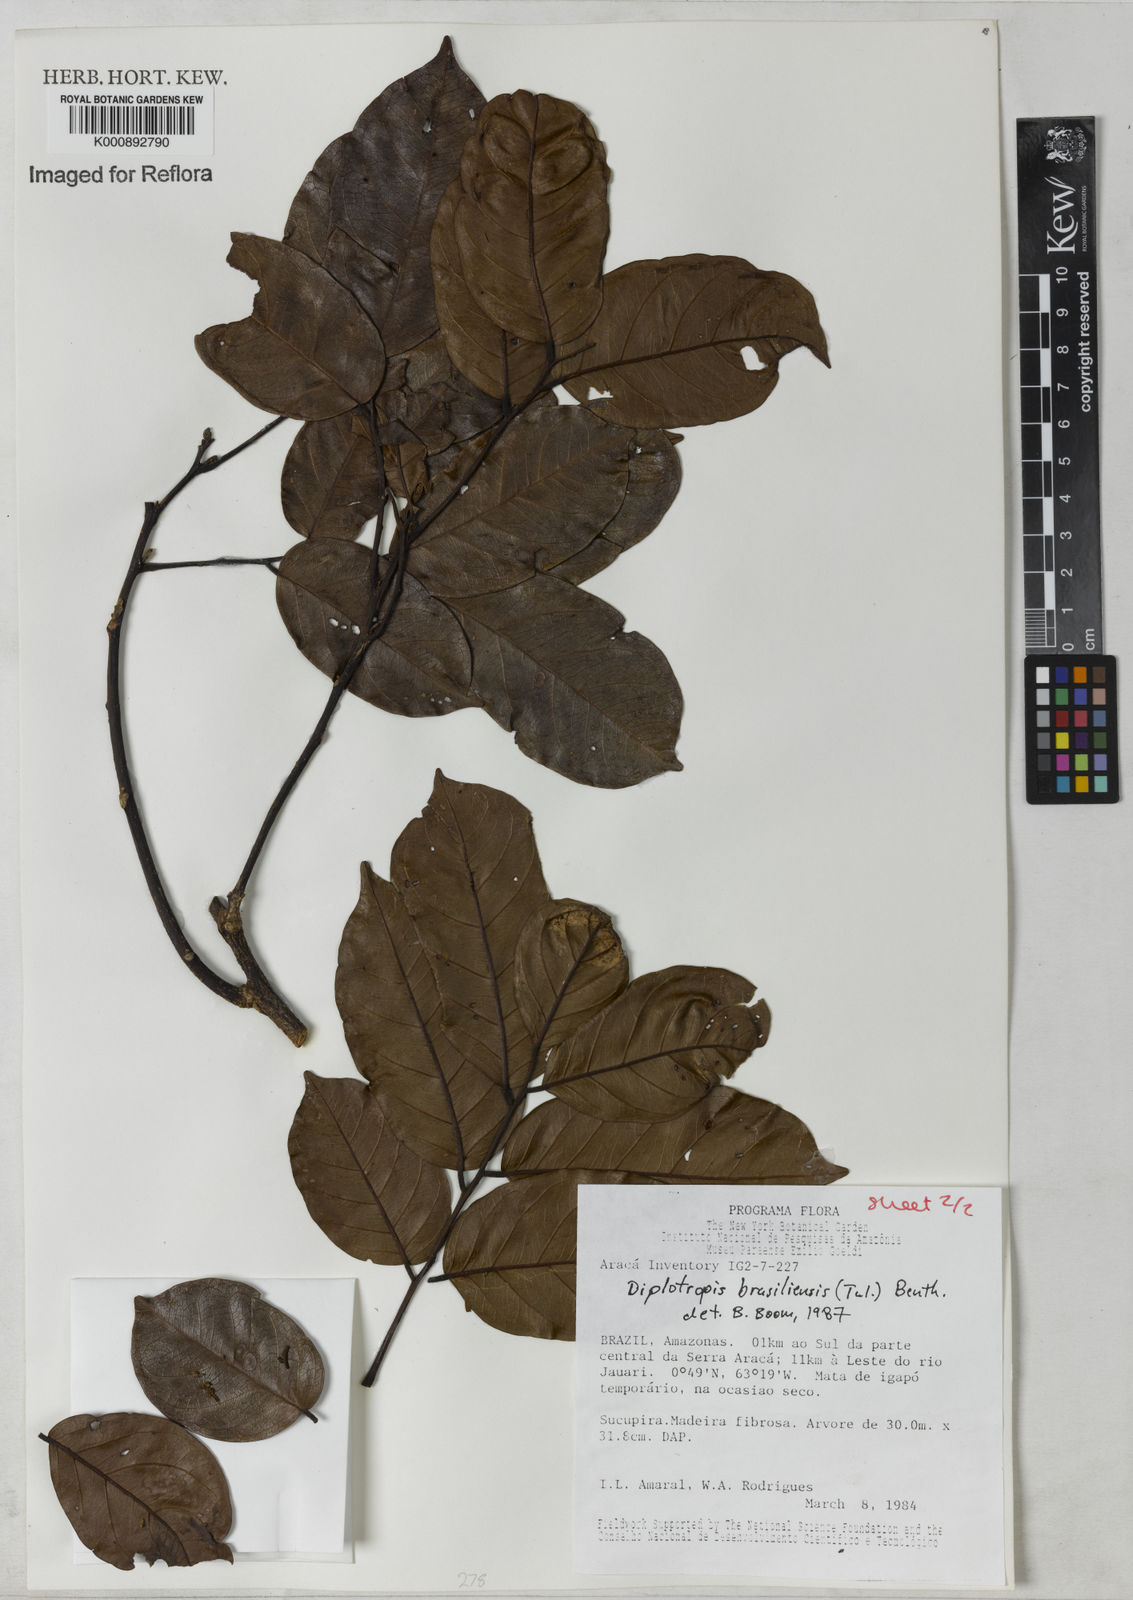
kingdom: Plantae
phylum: Tracheophyta
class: Magnoliopsida
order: Fabales
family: Fabaceae
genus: Diplotropis
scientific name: Diplotropis brasiliensis
